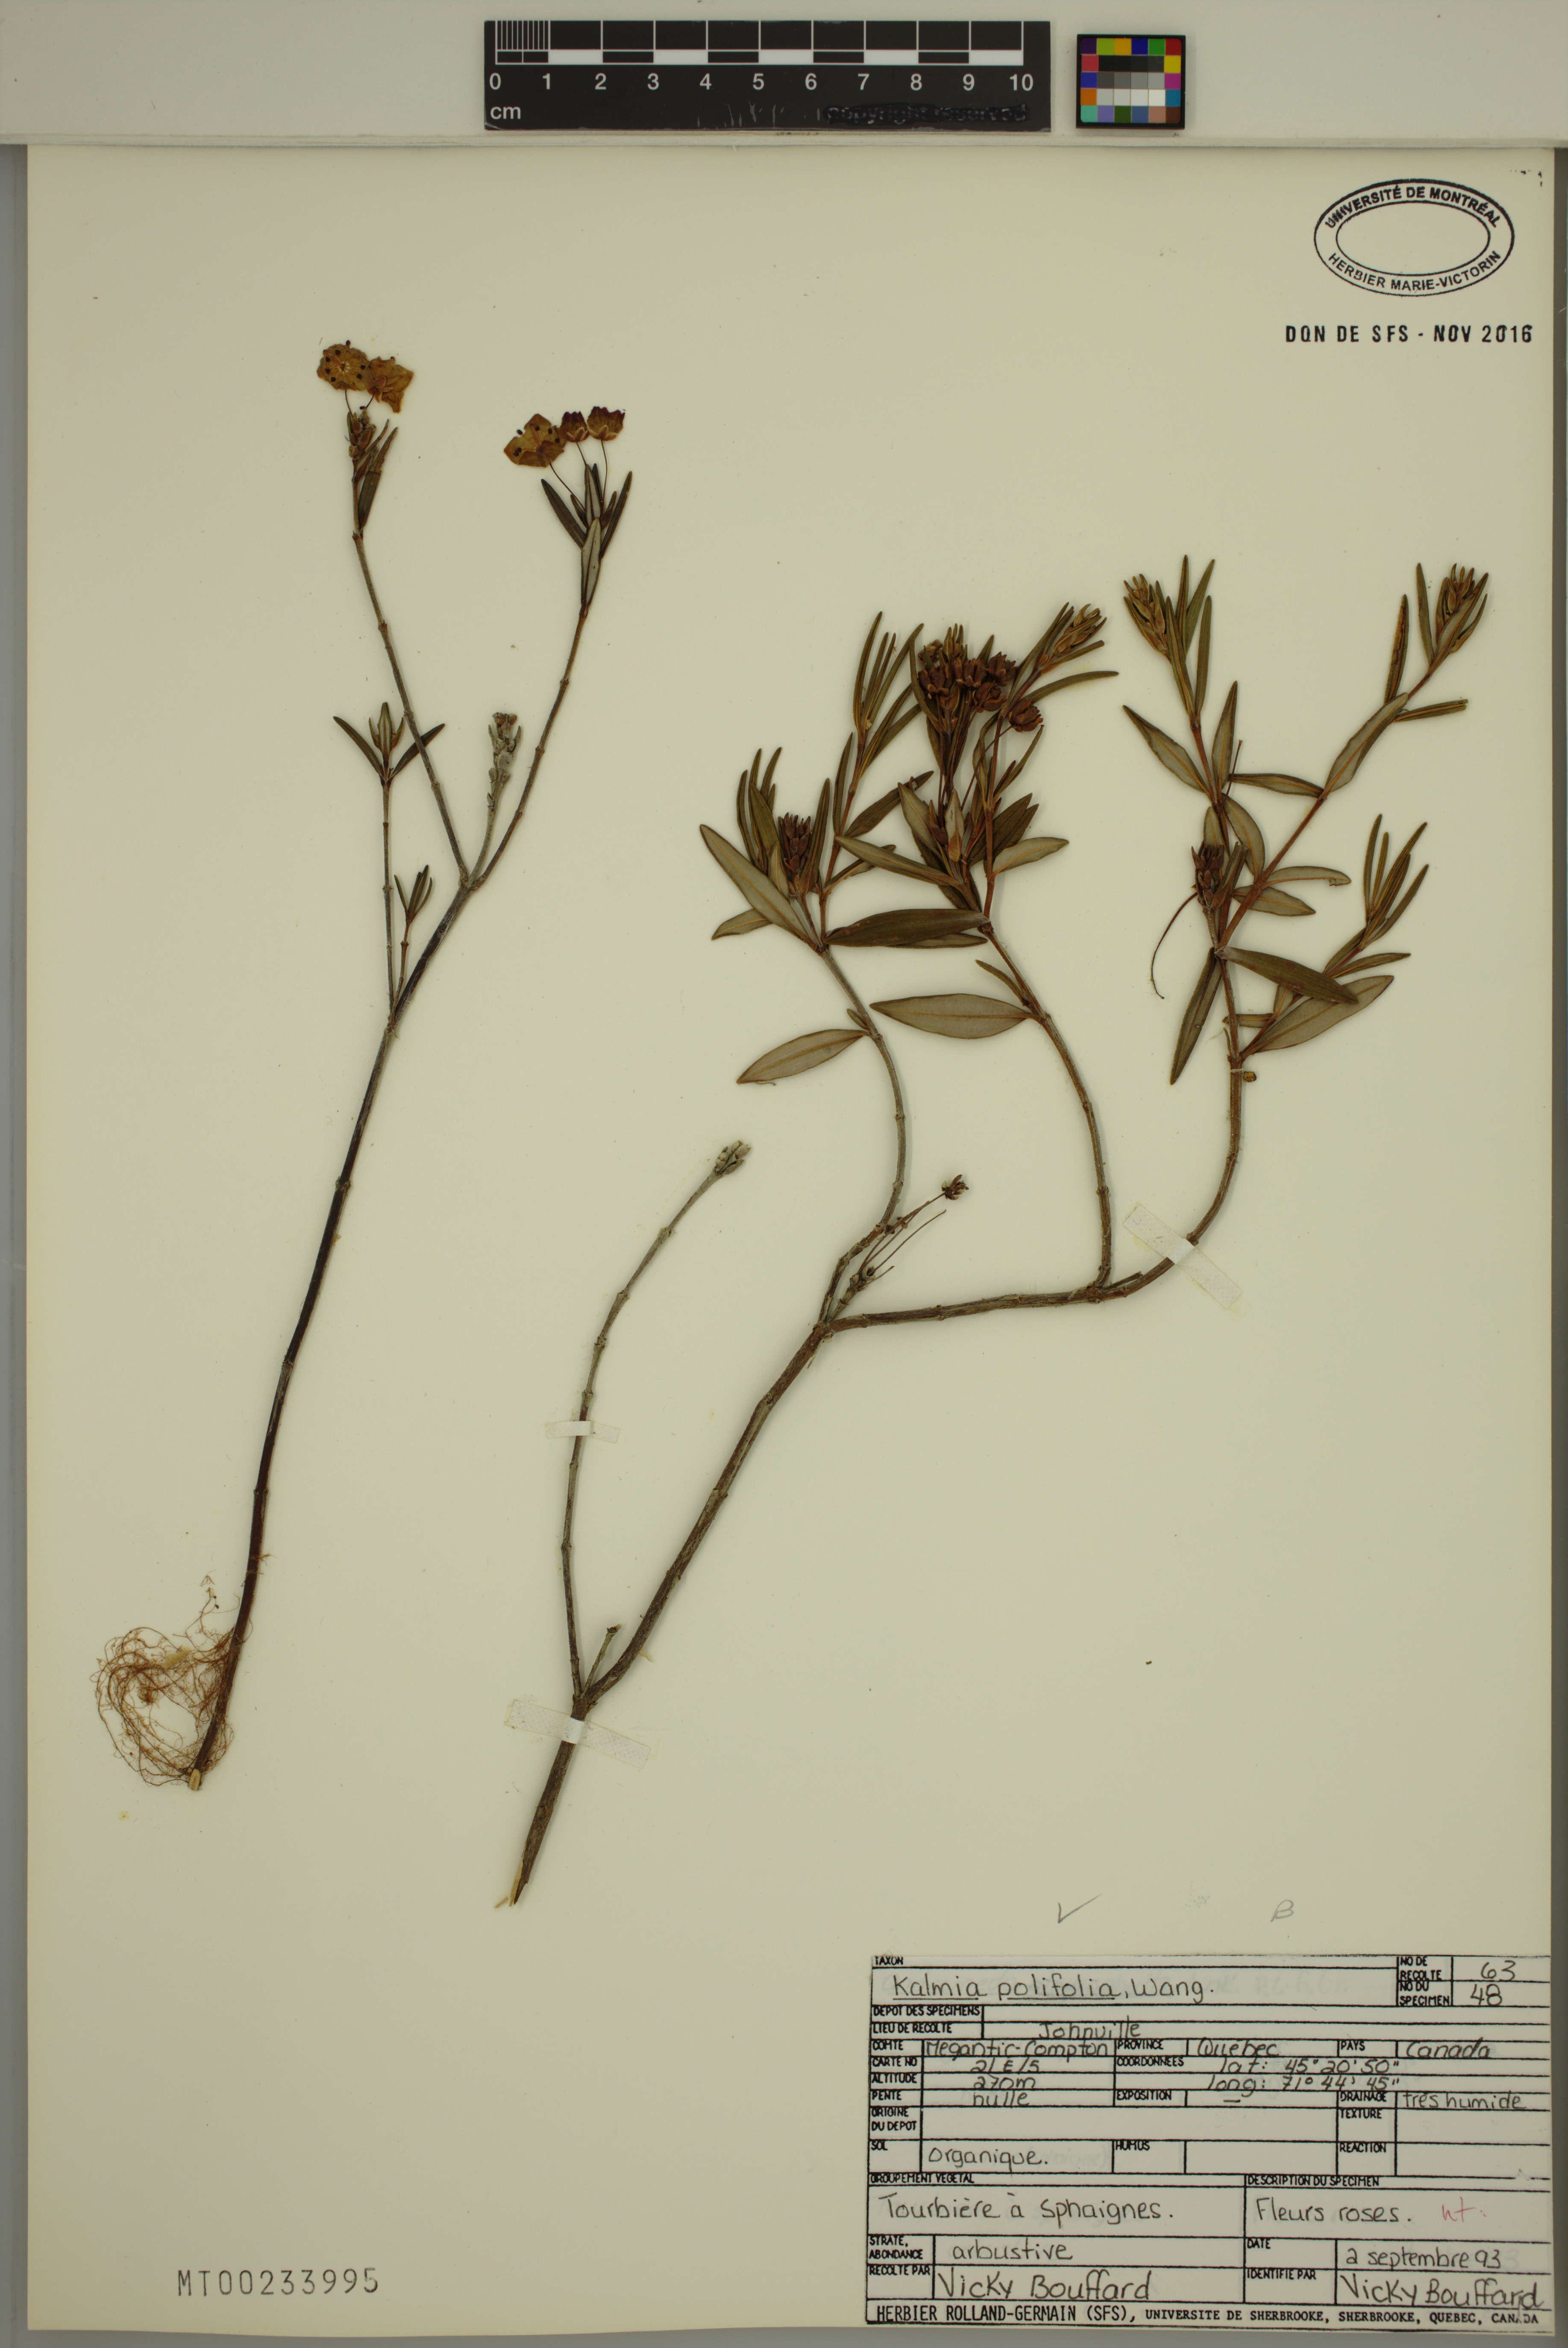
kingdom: Plantae
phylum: Tracheophyta
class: Magnoliopsida
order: Ericales
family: Ericaceae
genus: Kalmia
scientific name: Kalmia polifolia
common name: Bog-laurel
